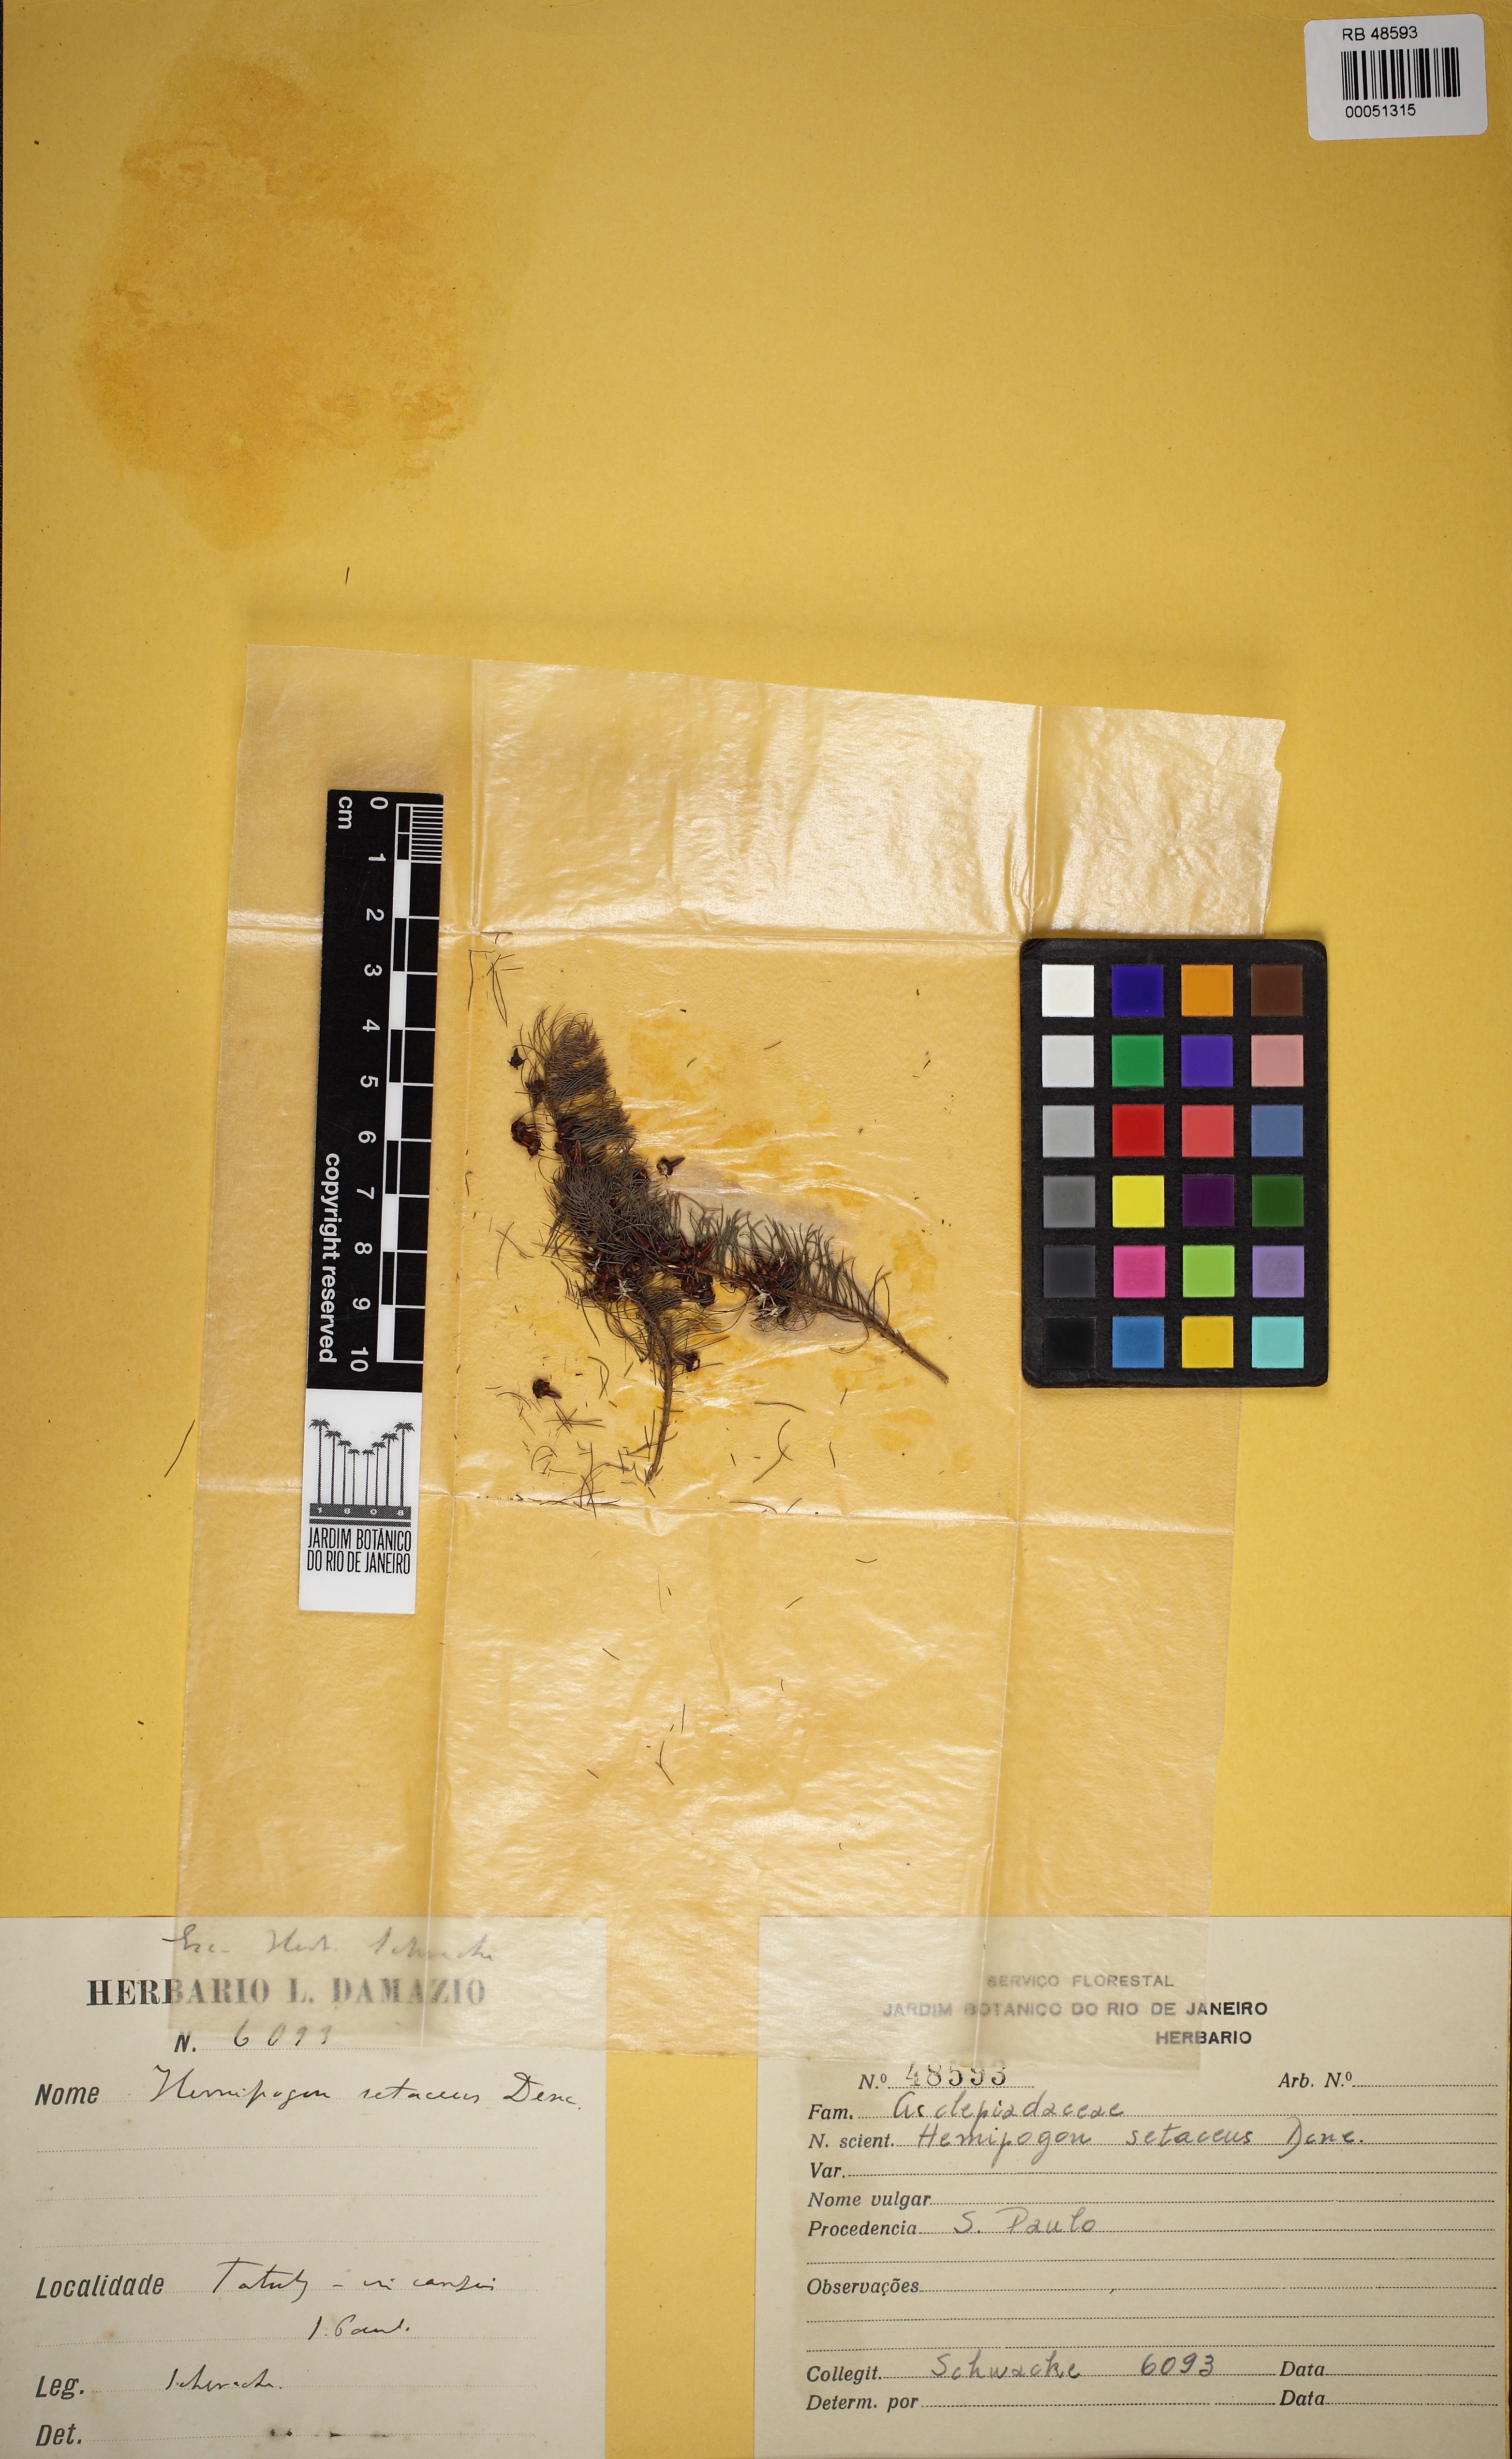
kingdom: Plantae
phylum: Tracheophyta
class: Magnoliopsida
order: Gentianales
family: Apocynaceae
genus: Hemipogon
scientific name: Hemipogon setaceus
